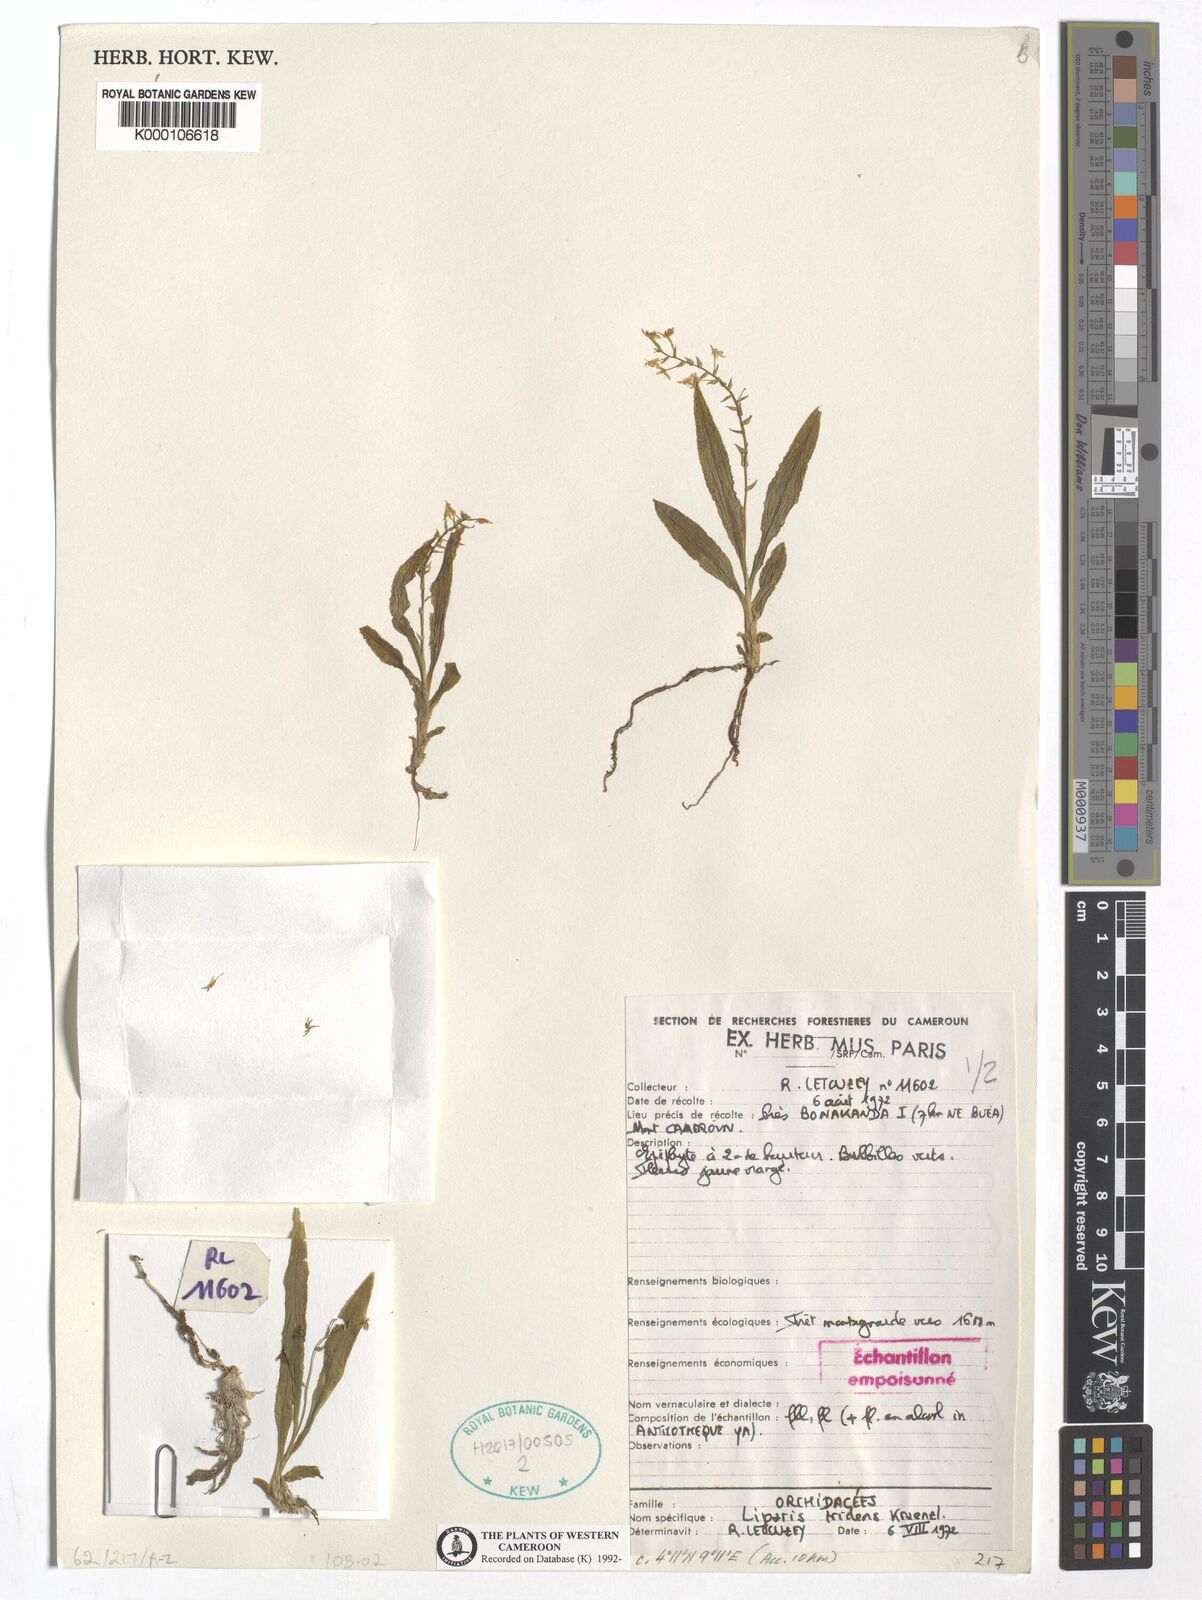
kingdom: Plantae
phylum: Tracheophyta
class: Liliopsida
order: Asparagales
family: Orchidaceae
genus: Liparis
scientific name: Liparis tridens
